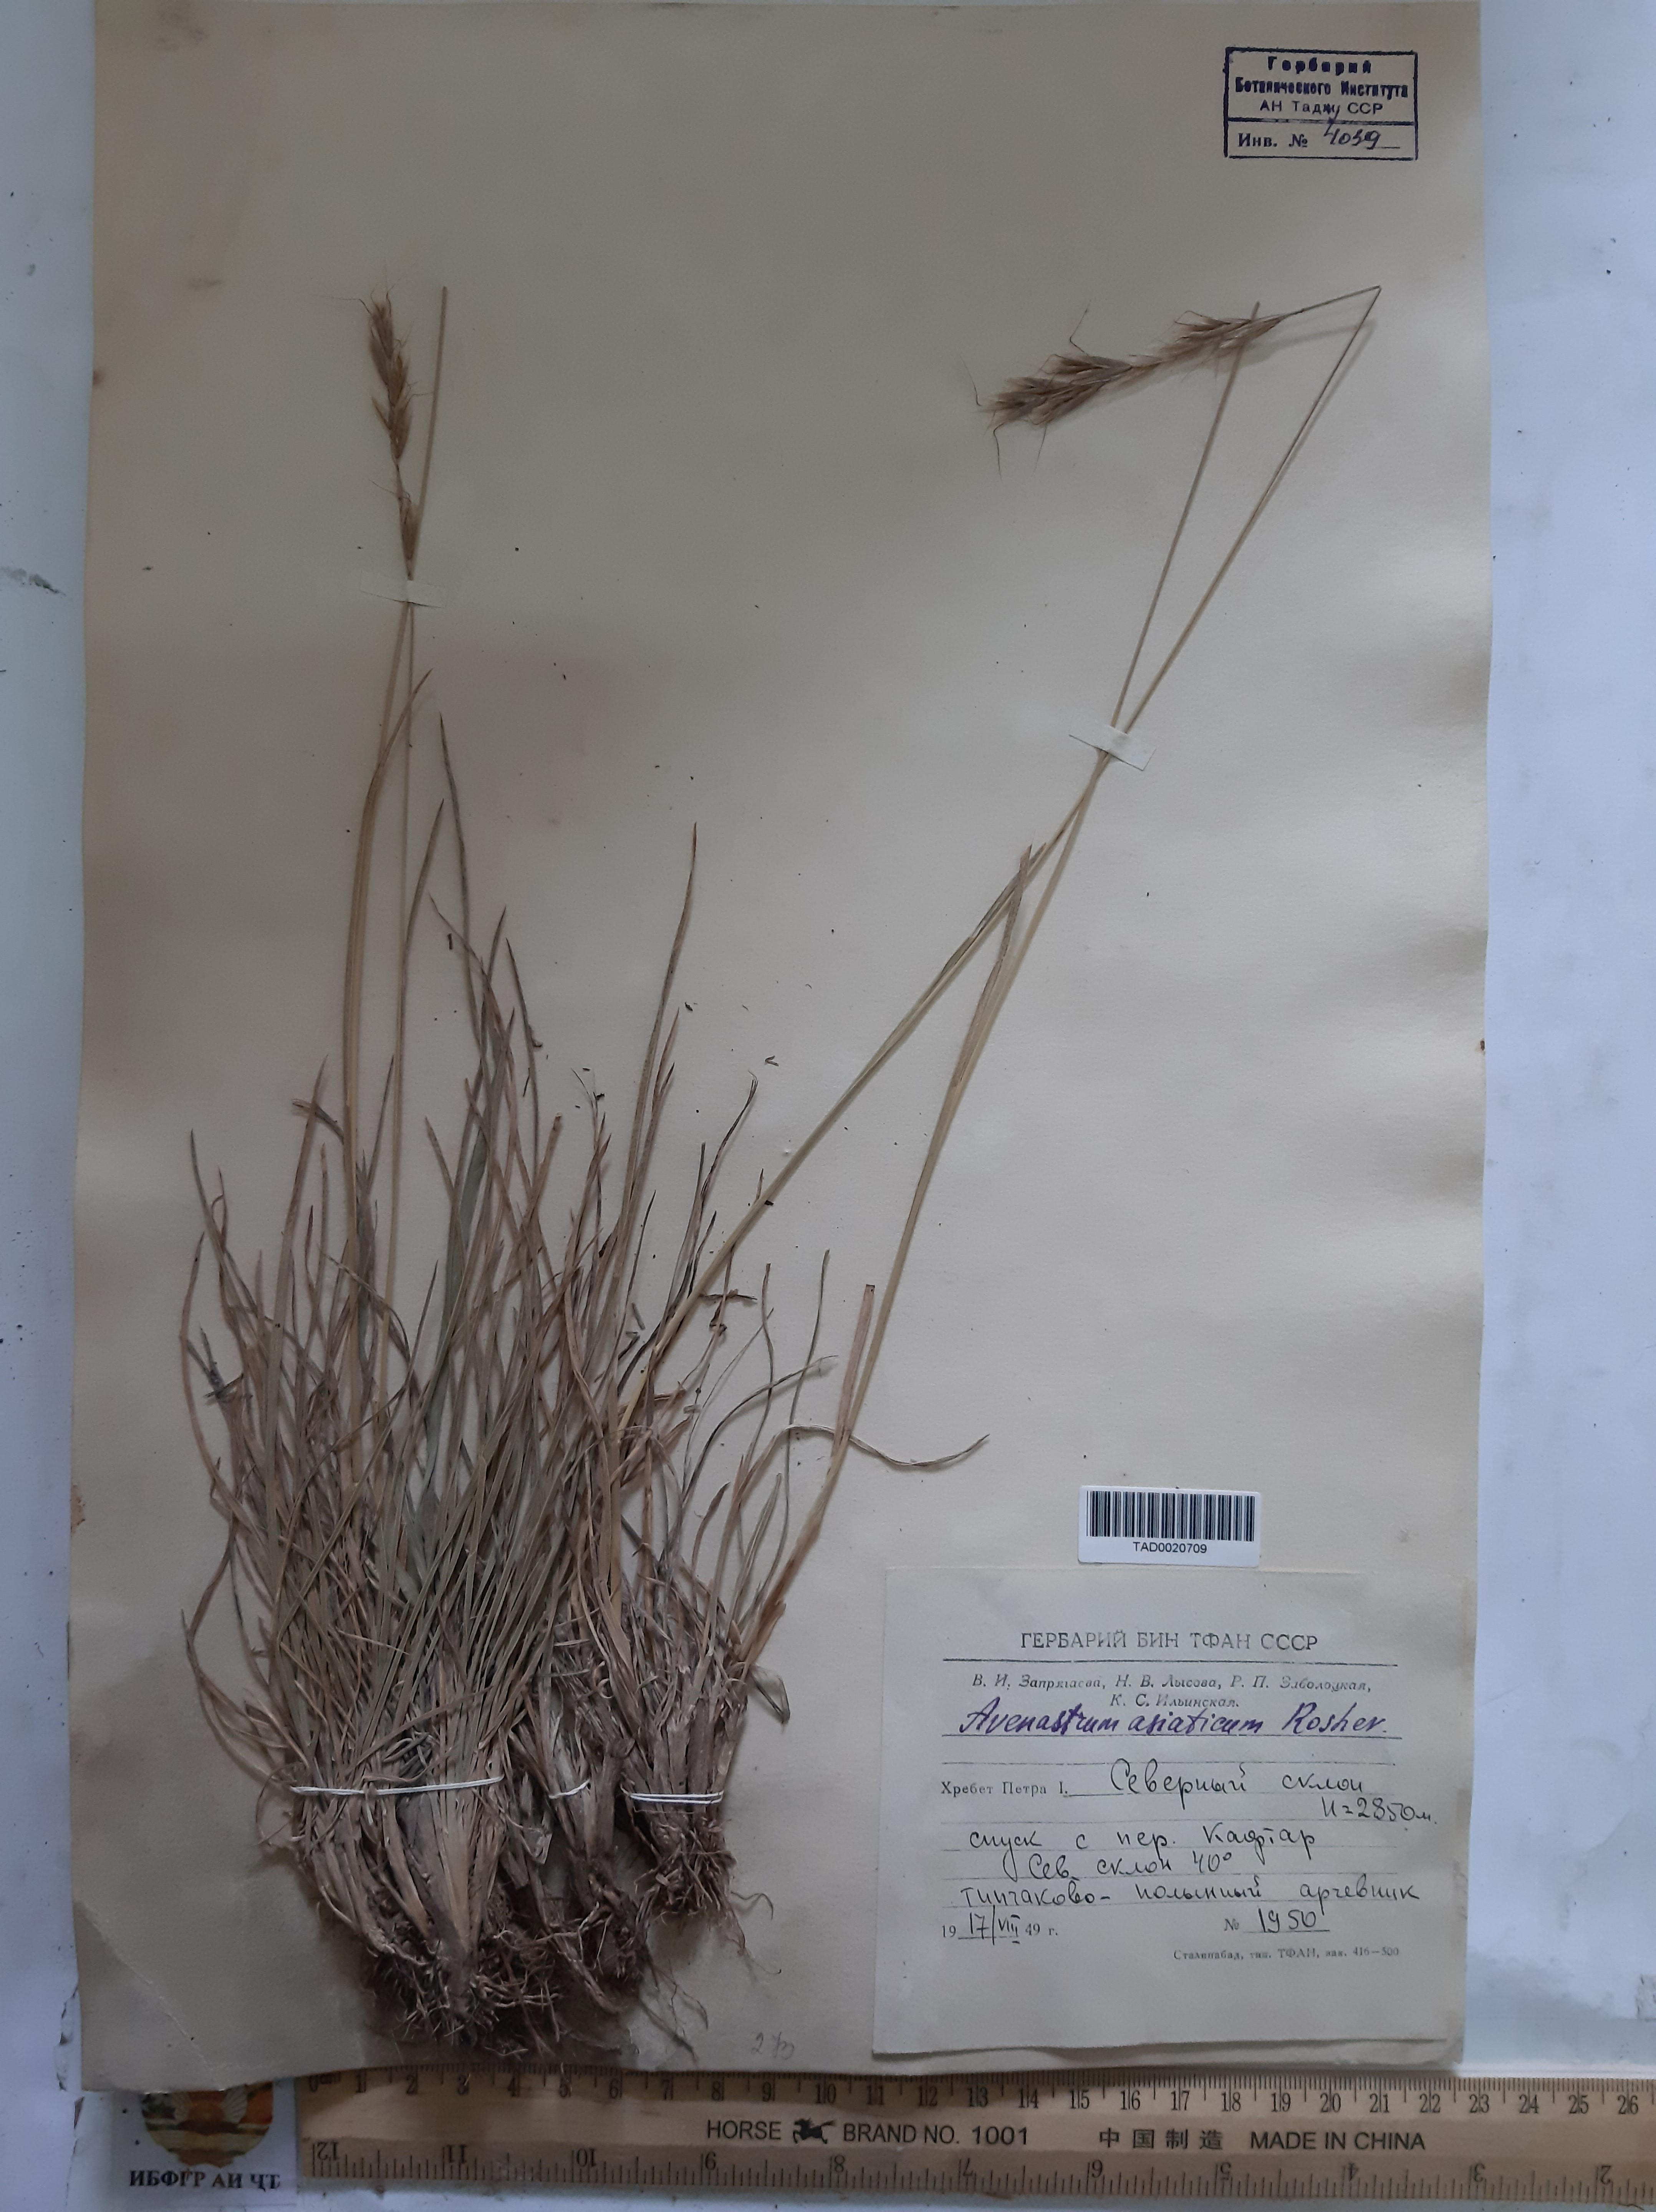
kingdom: Plantae
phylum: Tracheophyta
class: Liliopsida
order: Poales
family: Poaceae
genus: Helictochloa
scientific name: Helictochloa hookeri
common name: Hooker's alpine oatgrass
